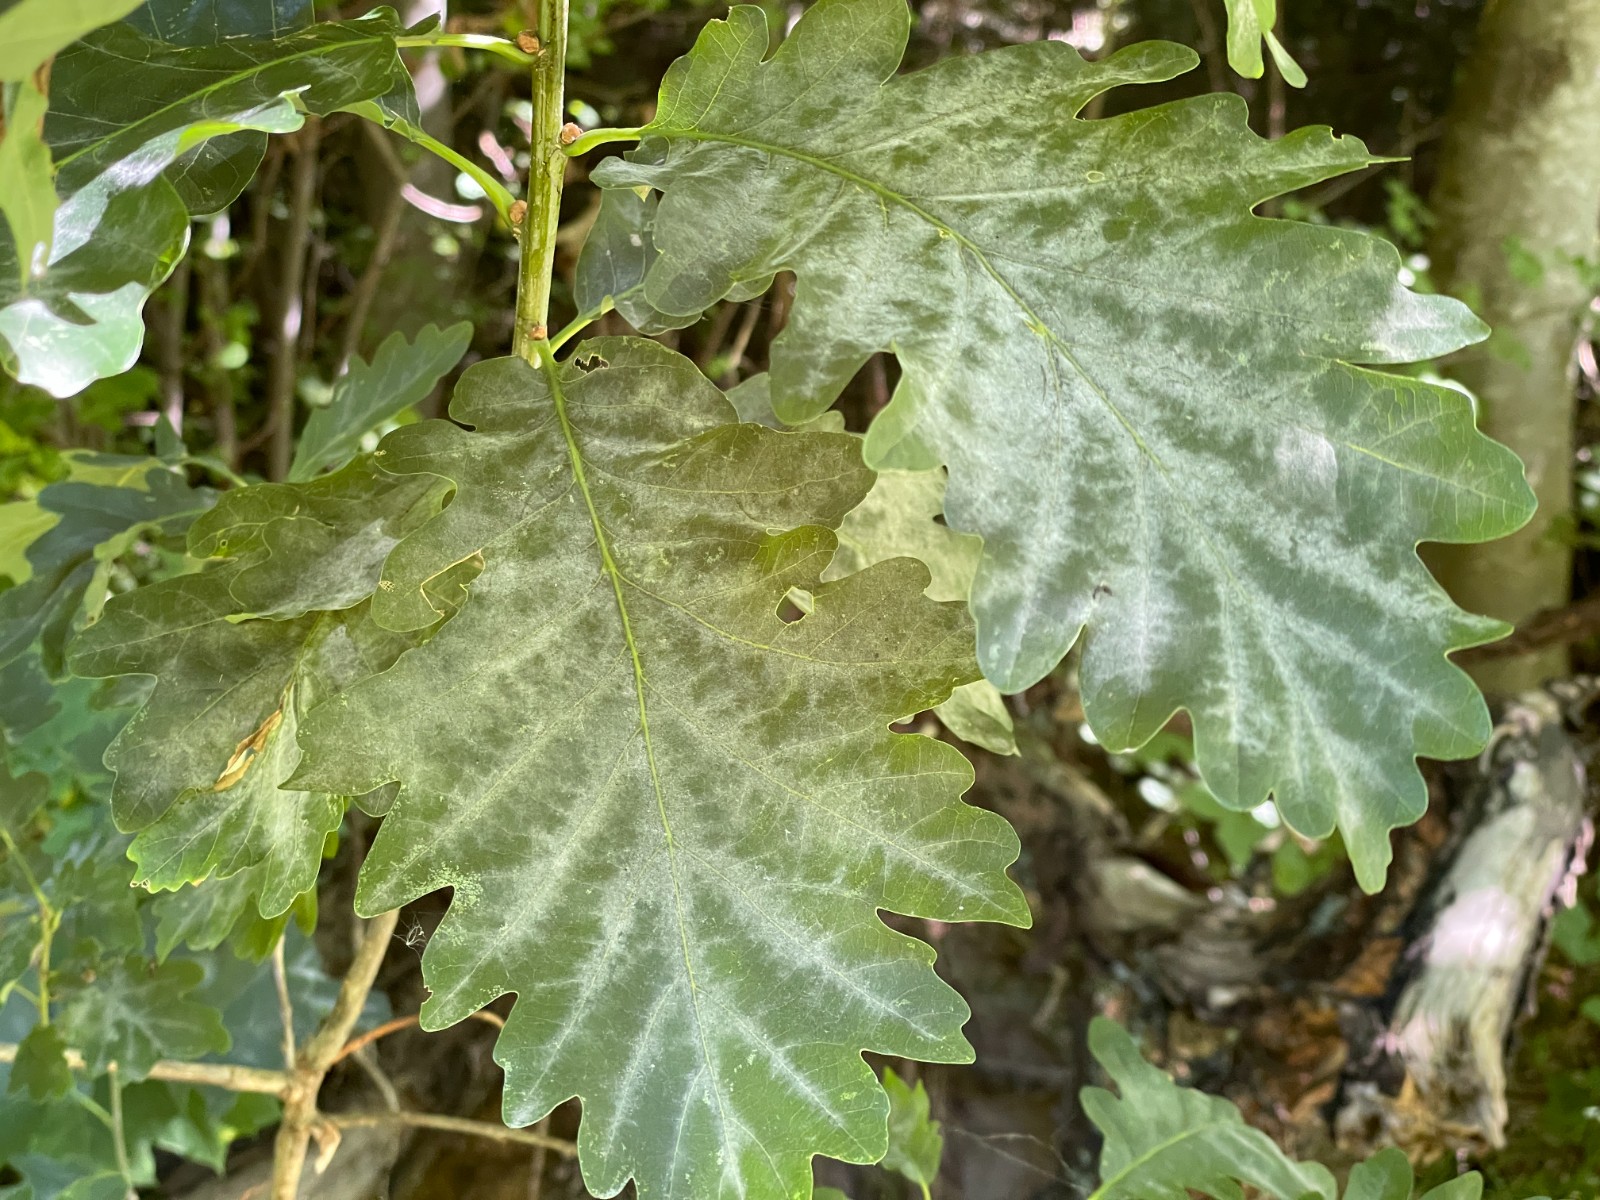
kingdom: Fungi
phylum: Ascomycota
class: Leotiomycetes
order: Helotiales
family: Erysiphaceae
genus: Erysiphe
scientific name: Erysiphe alphitoides
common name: ege-meldug
